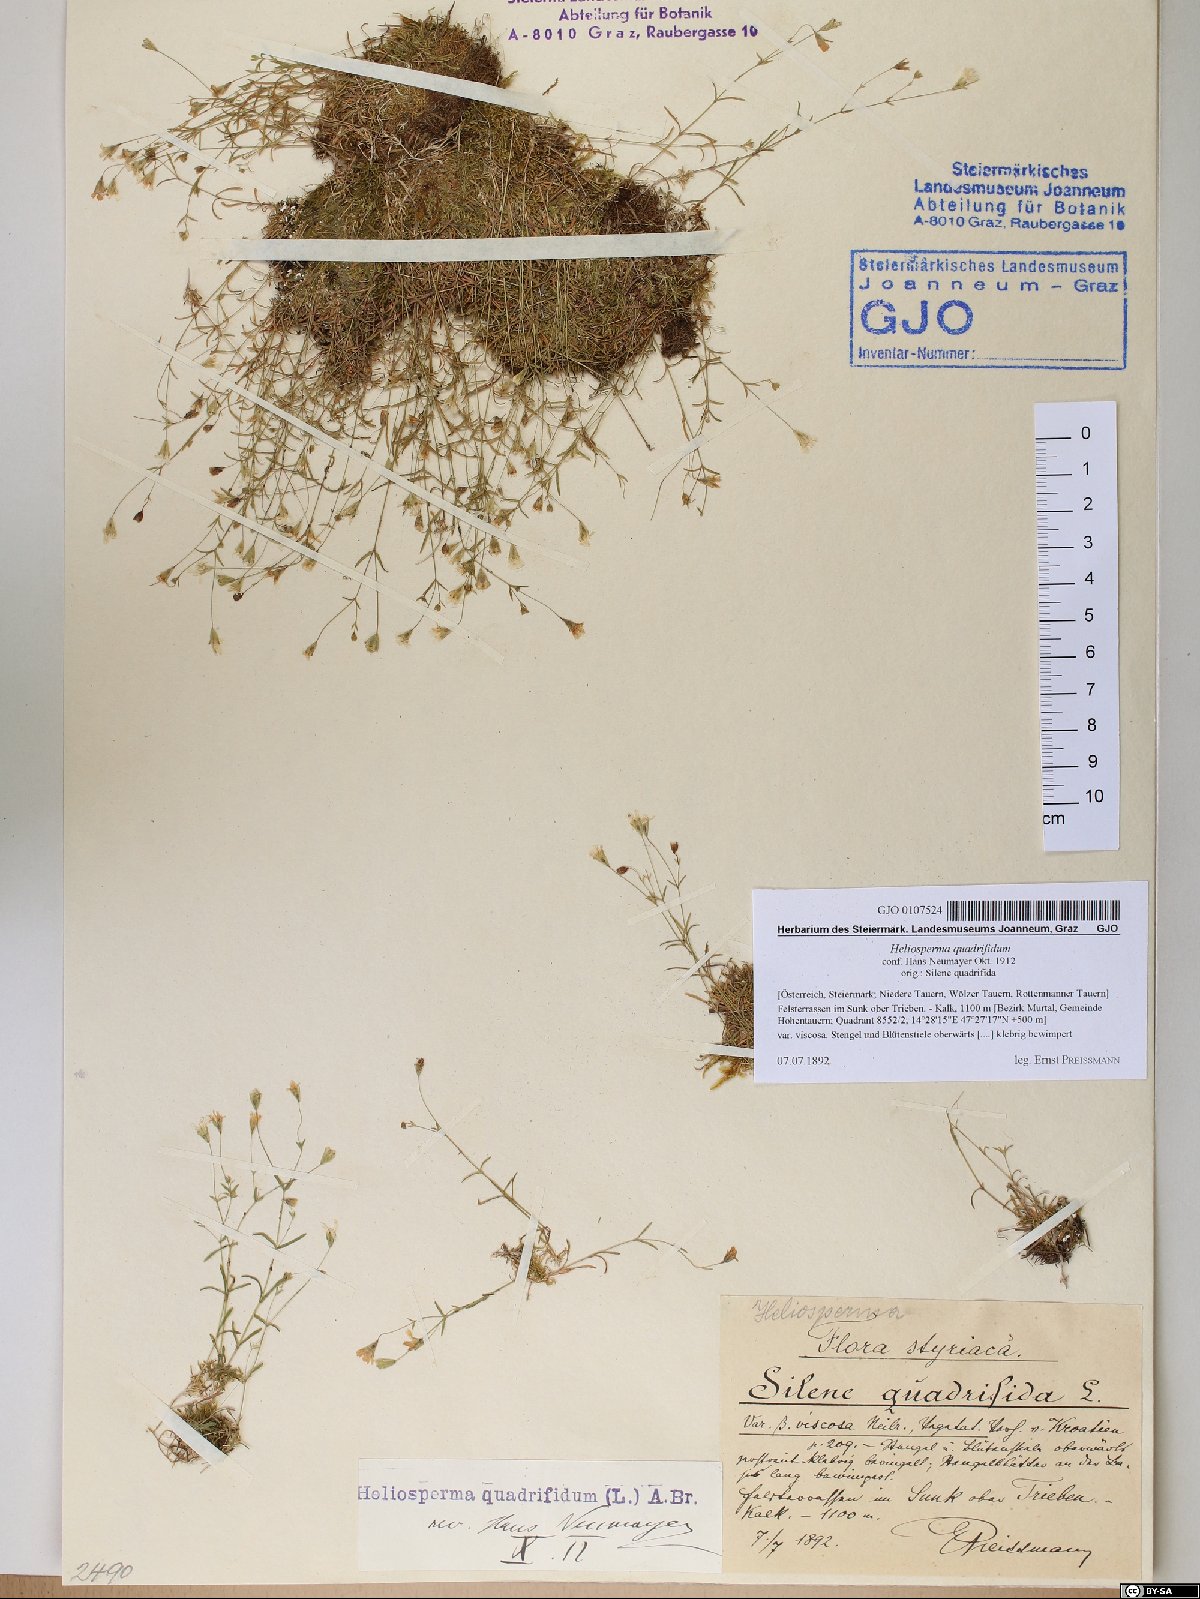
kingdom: Plantae
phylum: Tracheophyta
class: Magnoliopsida
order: Caryophyllales
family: Caryophyllaceae
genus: Heliosperma
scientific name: Heliosperma alpestre
